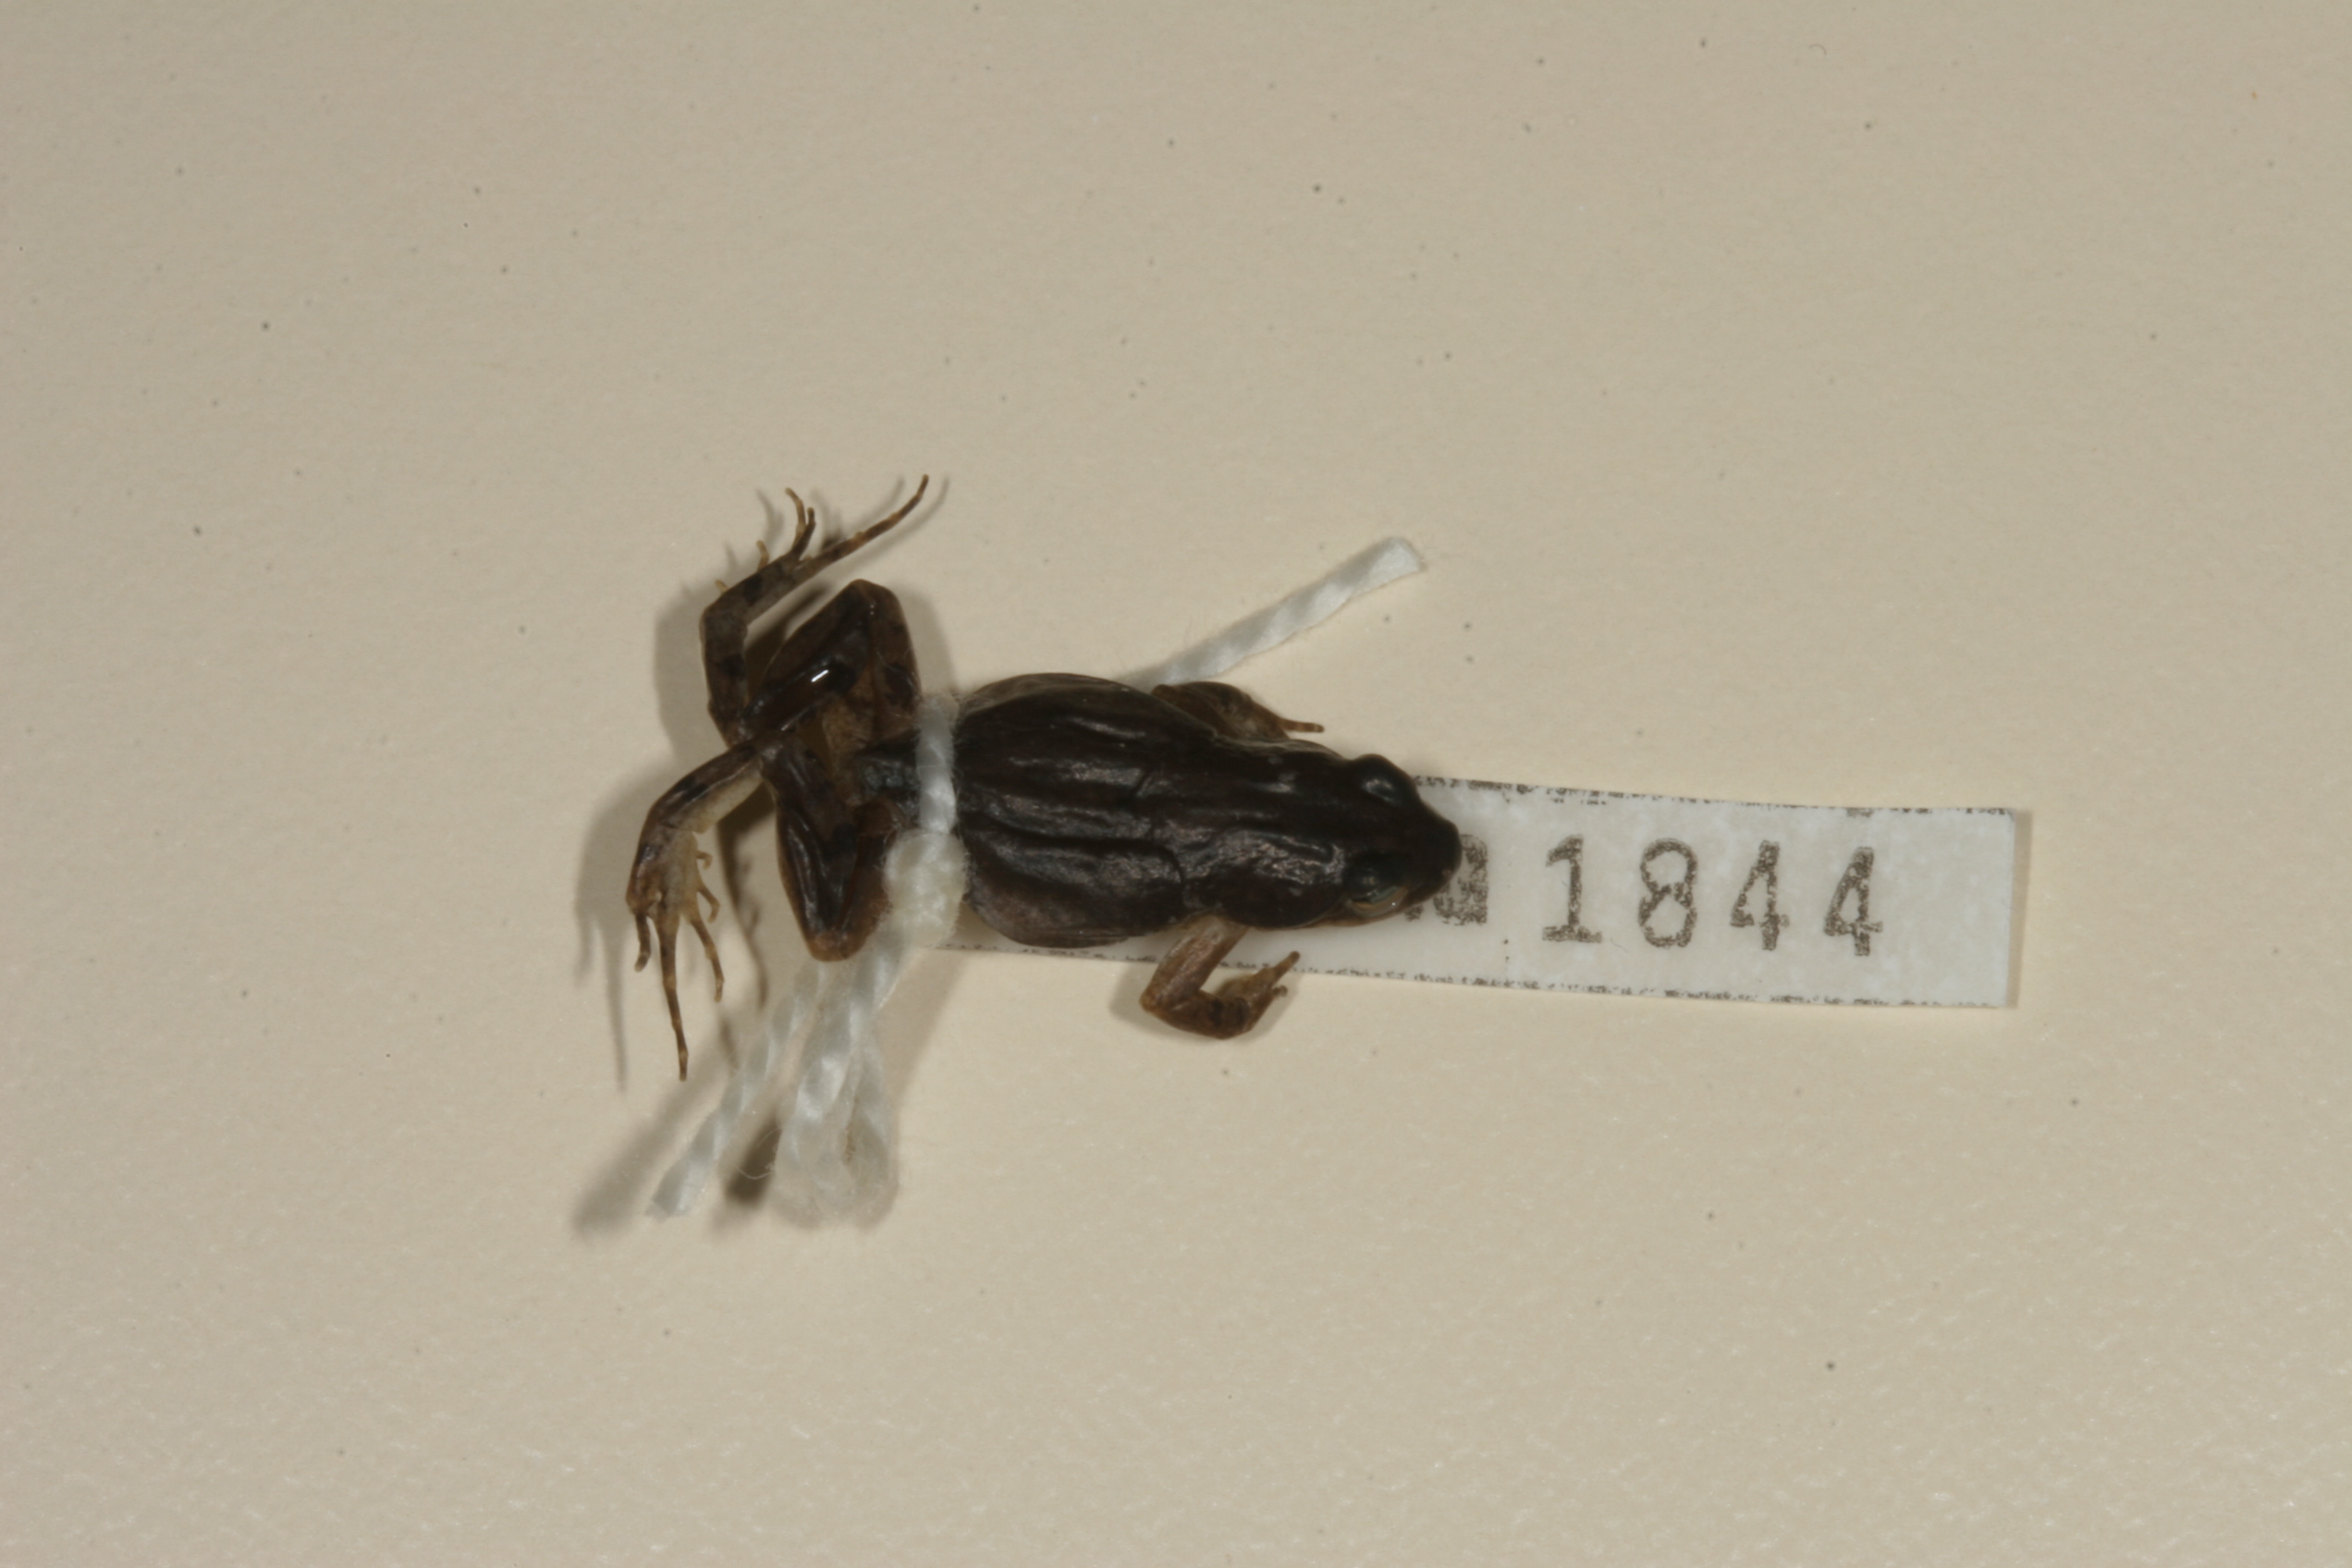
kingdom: Animalia
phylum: Chordata
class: Amphibia
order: Anura
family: Pyxicephalidae
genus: Cacosternum
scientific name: Cacosternum boettgeri
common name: Boettger's frog
